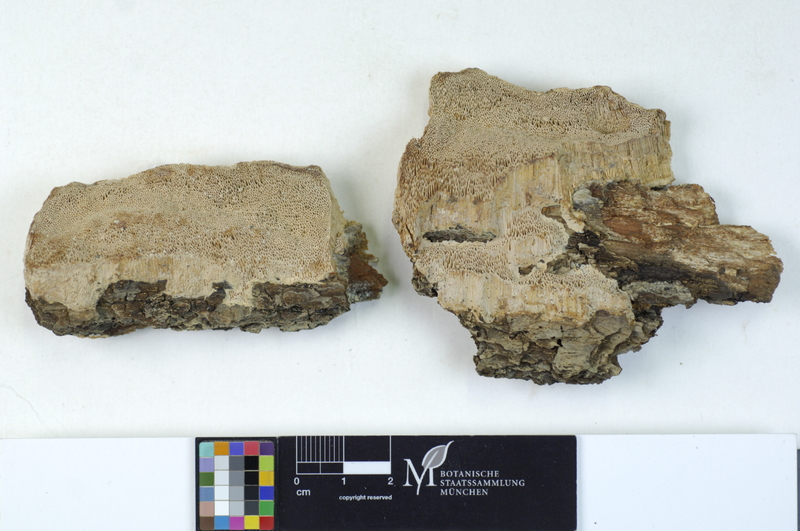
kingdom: Plantae
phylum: Tracheophyta
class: Magnoliopsida
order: Fagales
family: Fagaceae
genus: Quercus
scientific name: Quercus
